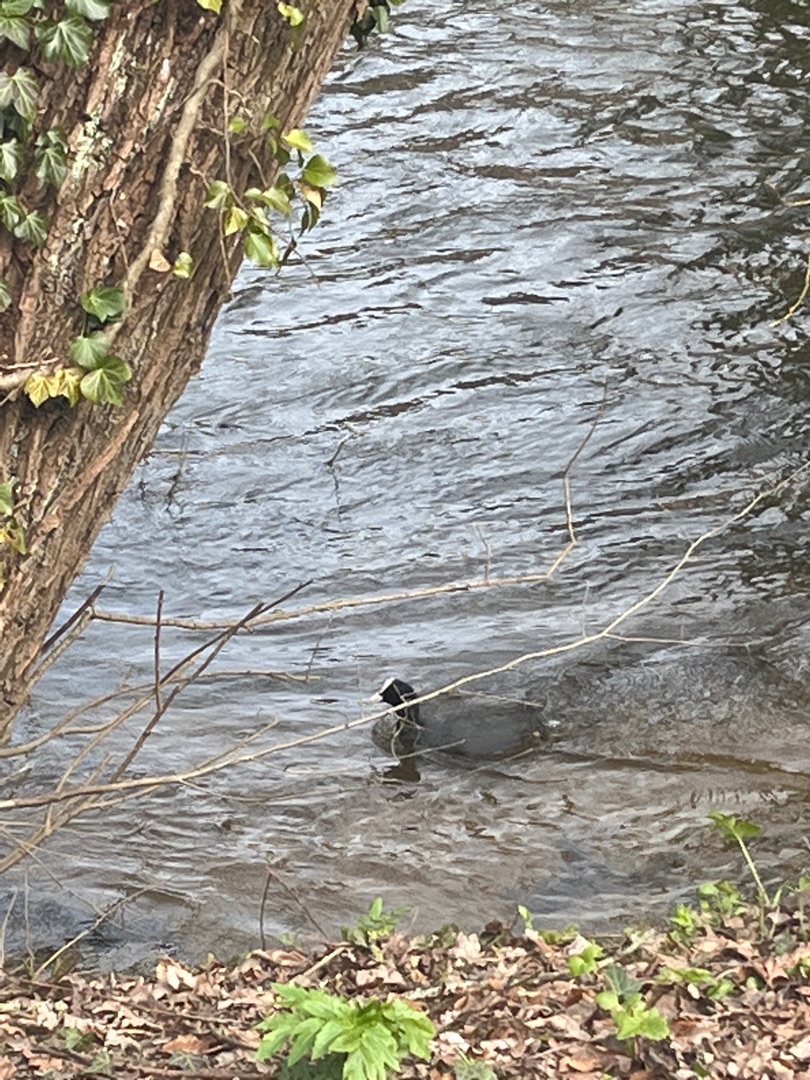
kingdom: Animalia
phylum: Chordata
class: Aves
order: Gruiformes
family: Rallidae
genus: Fulica
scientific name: Fulica atra
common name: Blishøne
